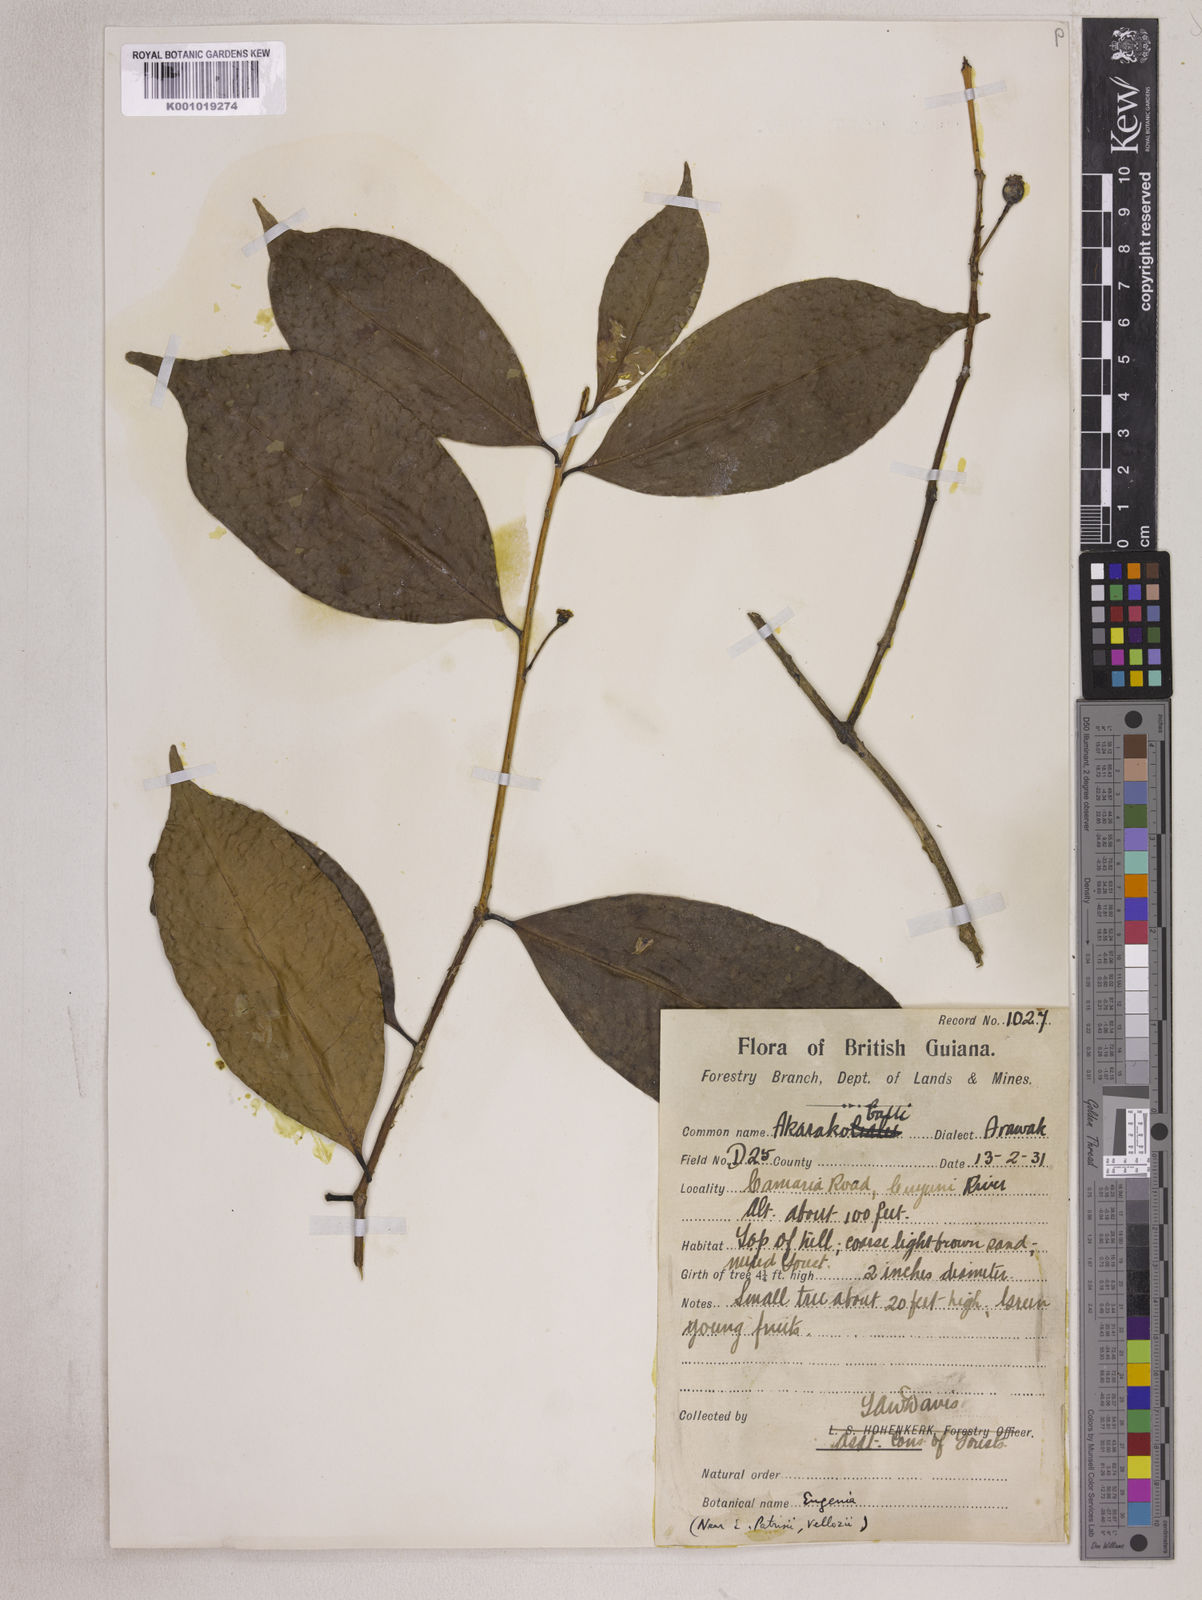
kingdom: Plantae
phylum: Tracheophyta
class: Magnoliopsida
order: Myrtales
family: Myrtaceae
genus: Eugenia
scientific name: Eugenia patrisii
